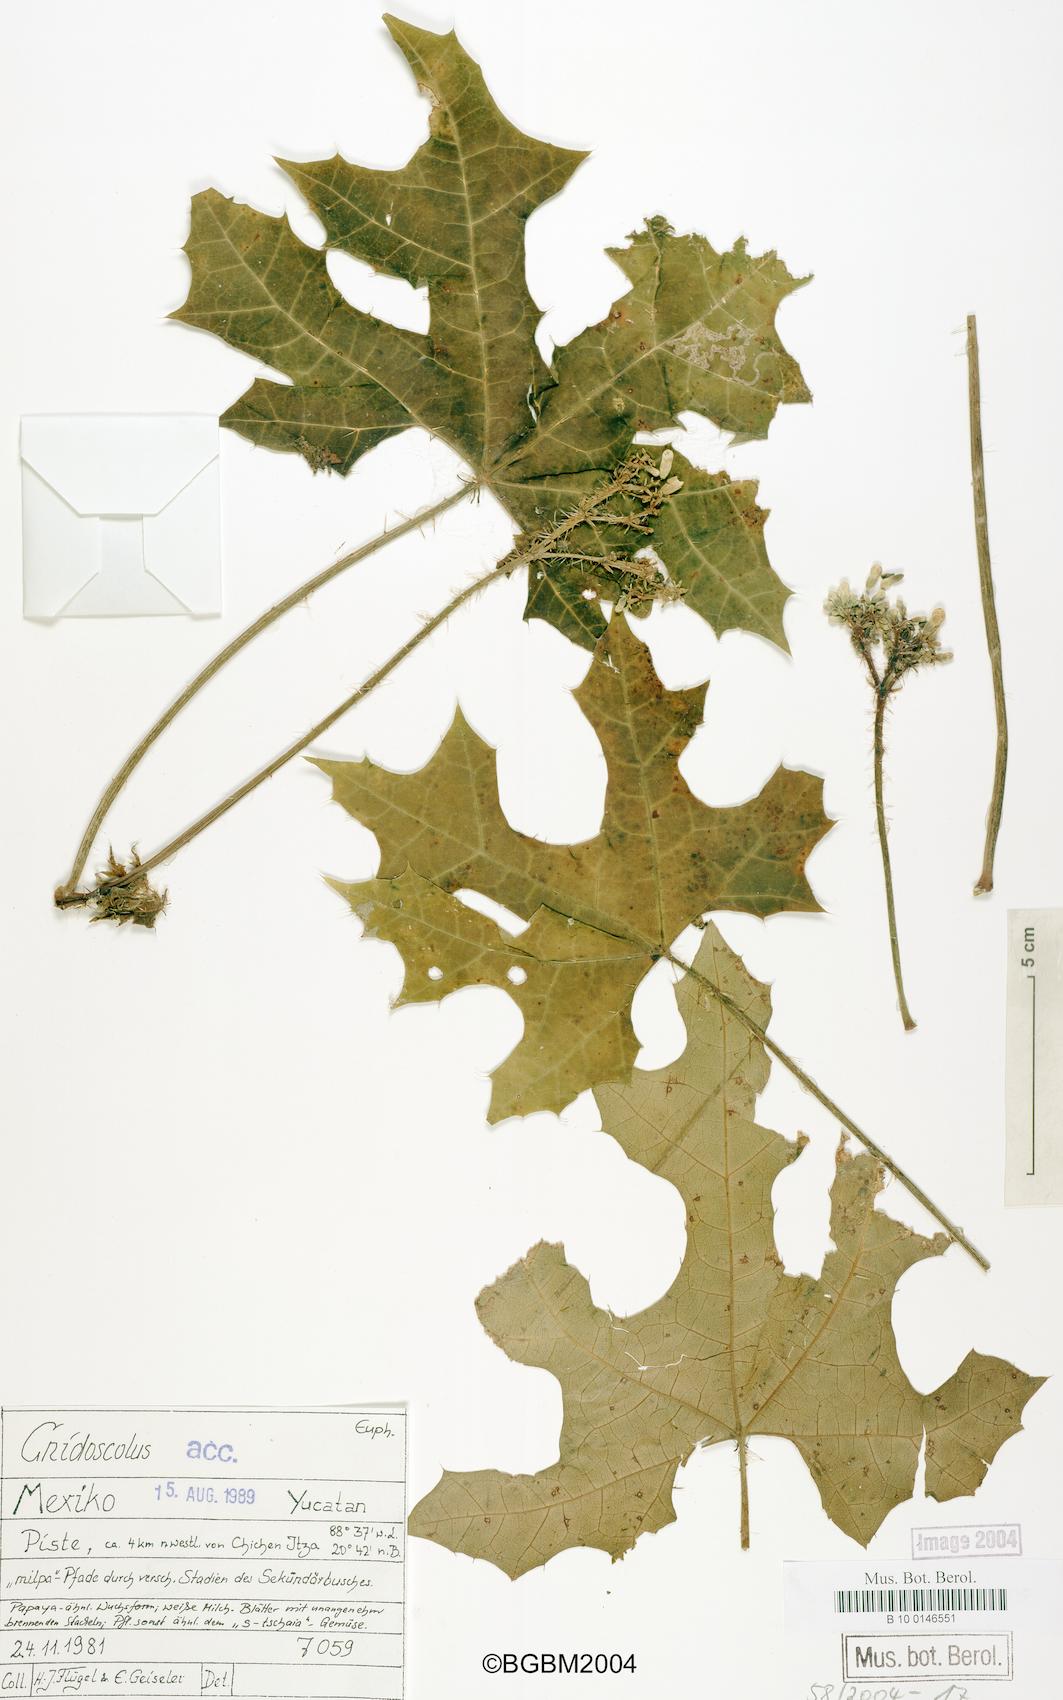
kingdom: Plantae
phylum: Tracheophyta
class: Magnoliopsida
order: Malpighiales
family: Euphorbiaceae
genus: Cnidoscolus
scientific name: Cnidoscolus
